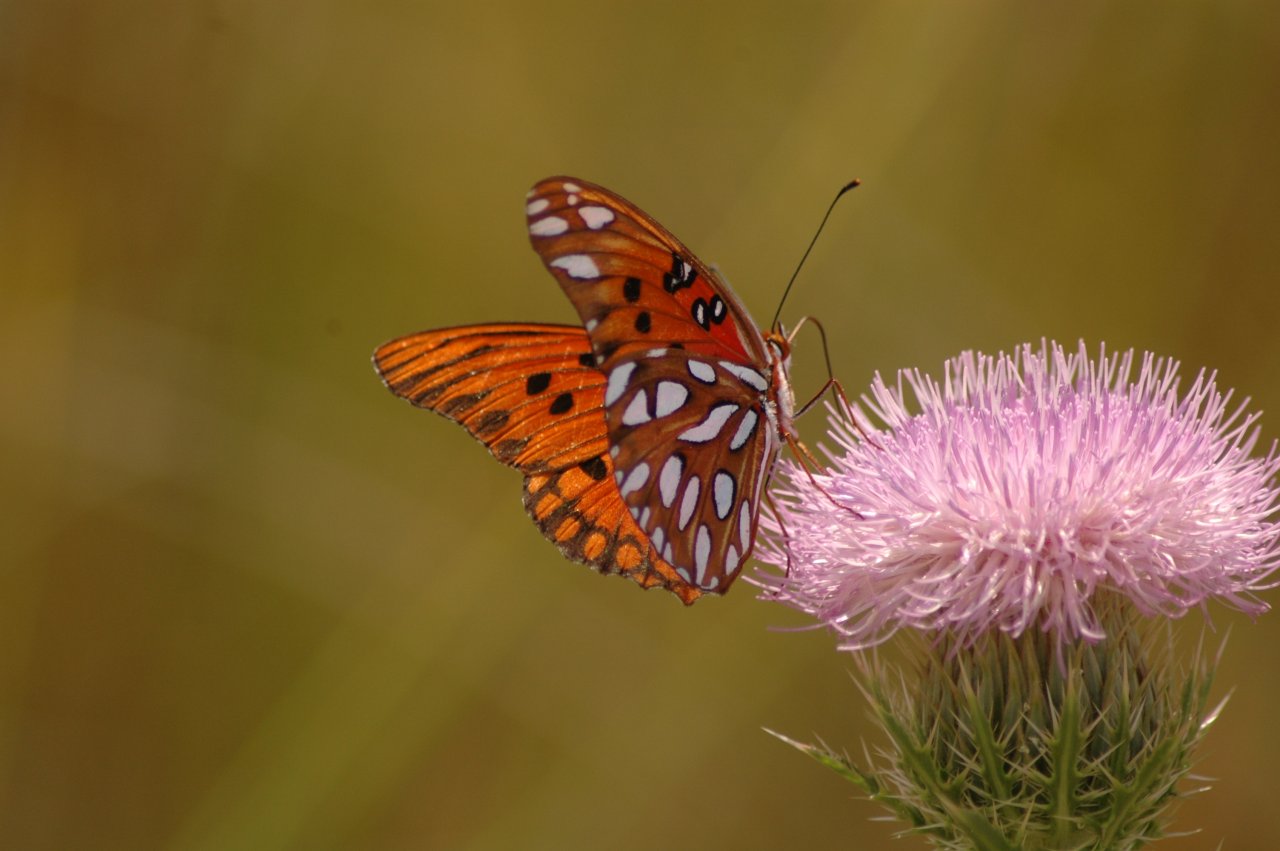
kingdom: Animalia
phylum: Arthropoda
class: Insecta
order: Lepidoptera
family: Nymphalidae
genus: Dione
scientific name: Dione vanillae
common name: Gulf Fritillary
